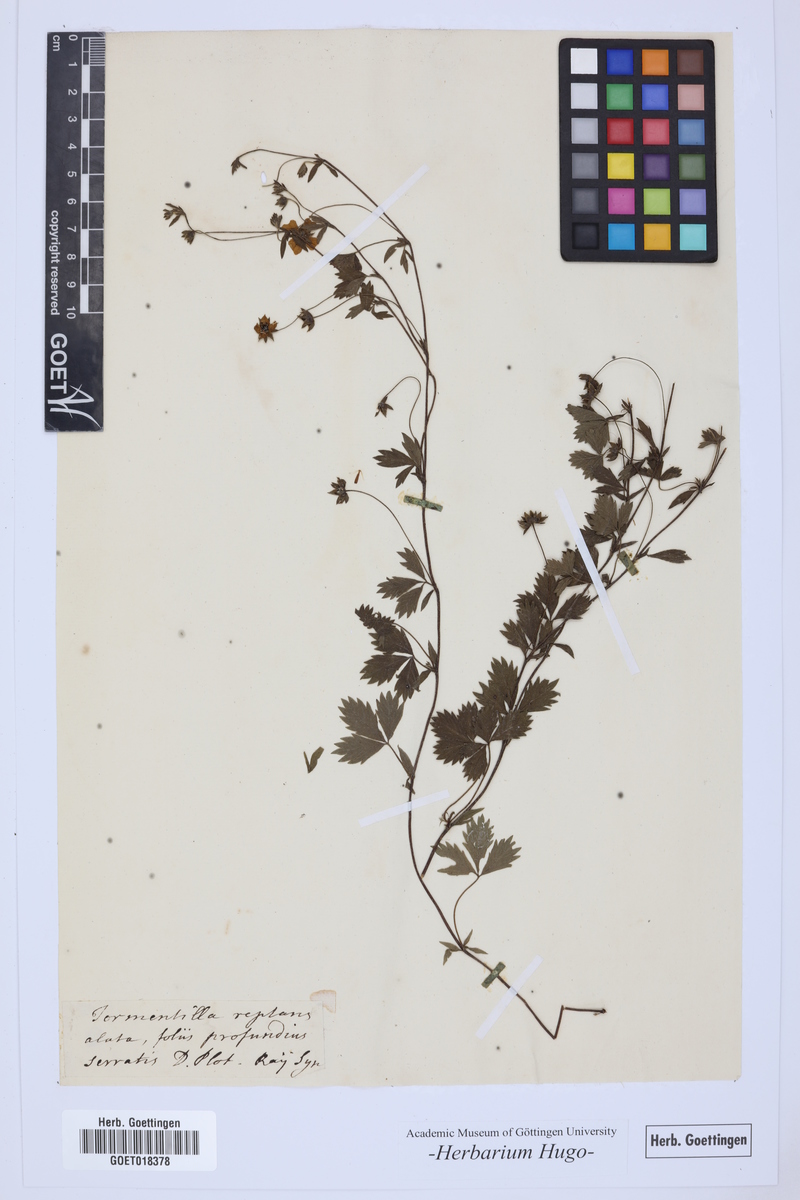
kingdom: Plantae
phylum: Tracheophyta
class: Magnoliopsida
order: Rosales
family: Rosaceae
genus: Potentilla
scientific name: Potentilla
